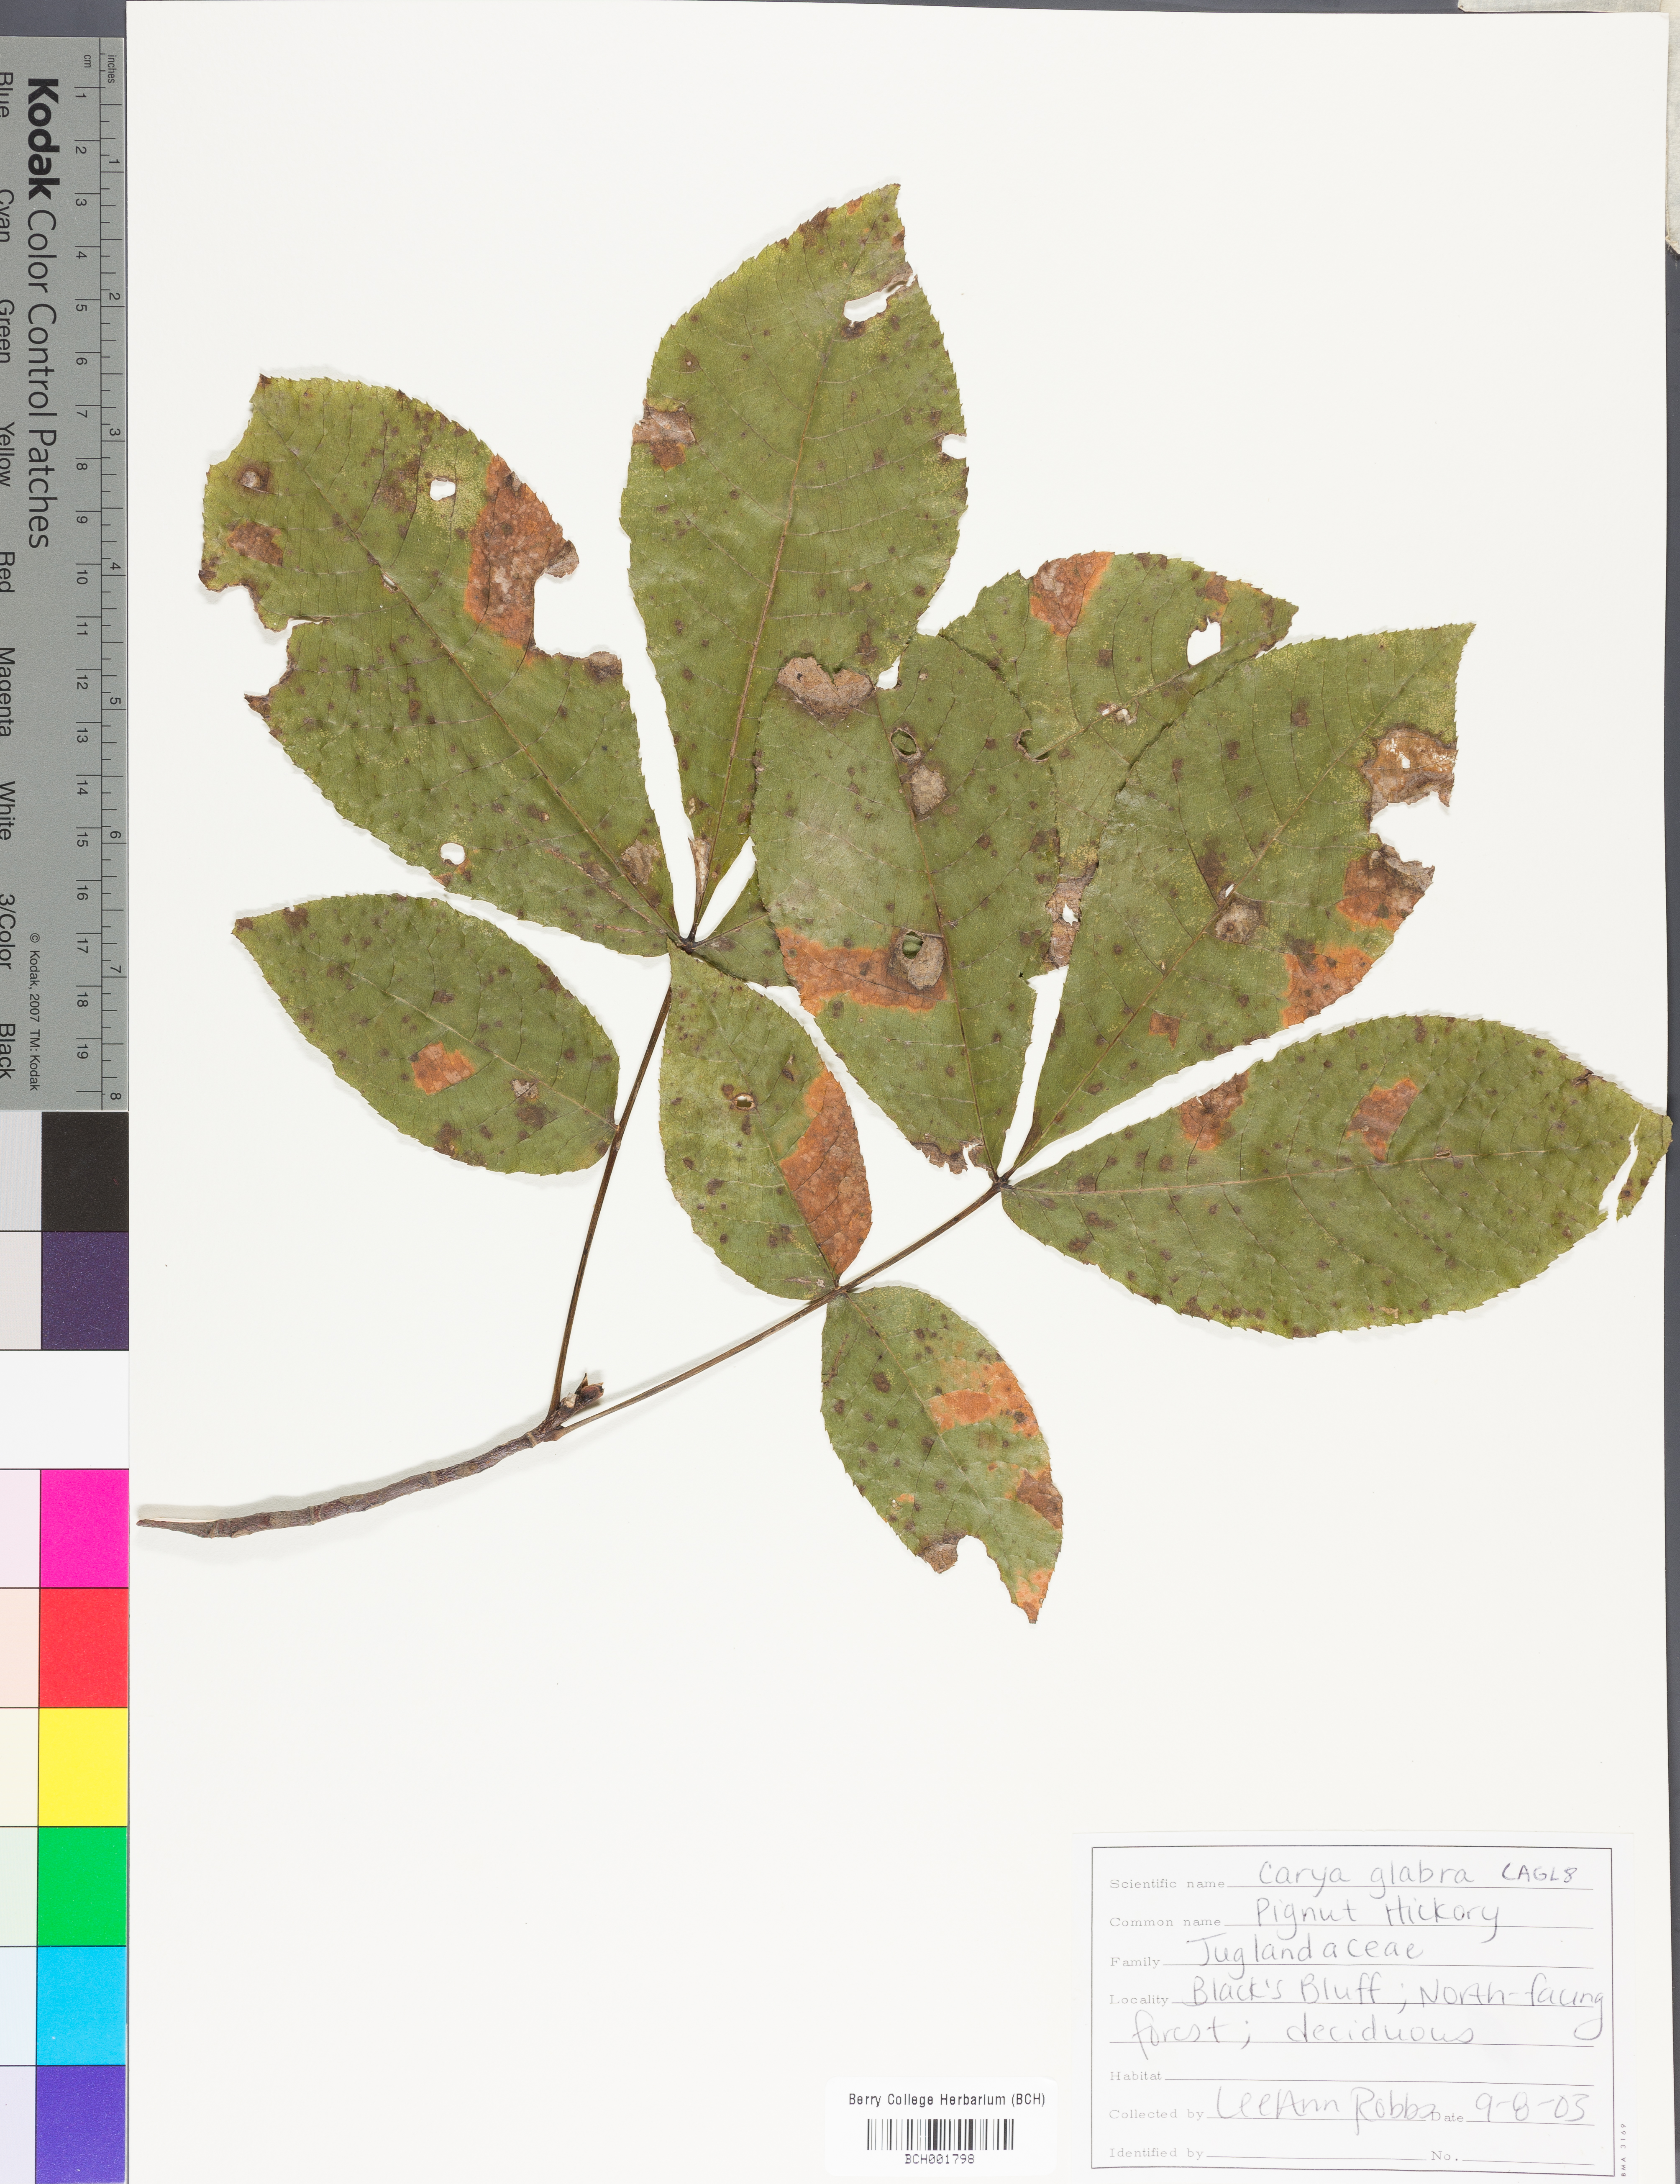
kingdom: Plantae
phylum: Tracheophyta
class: Magnoliopsida
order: Fagales
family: Juglandaceae
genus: Carya
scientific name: Carya glabra
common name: Pignut hickory
